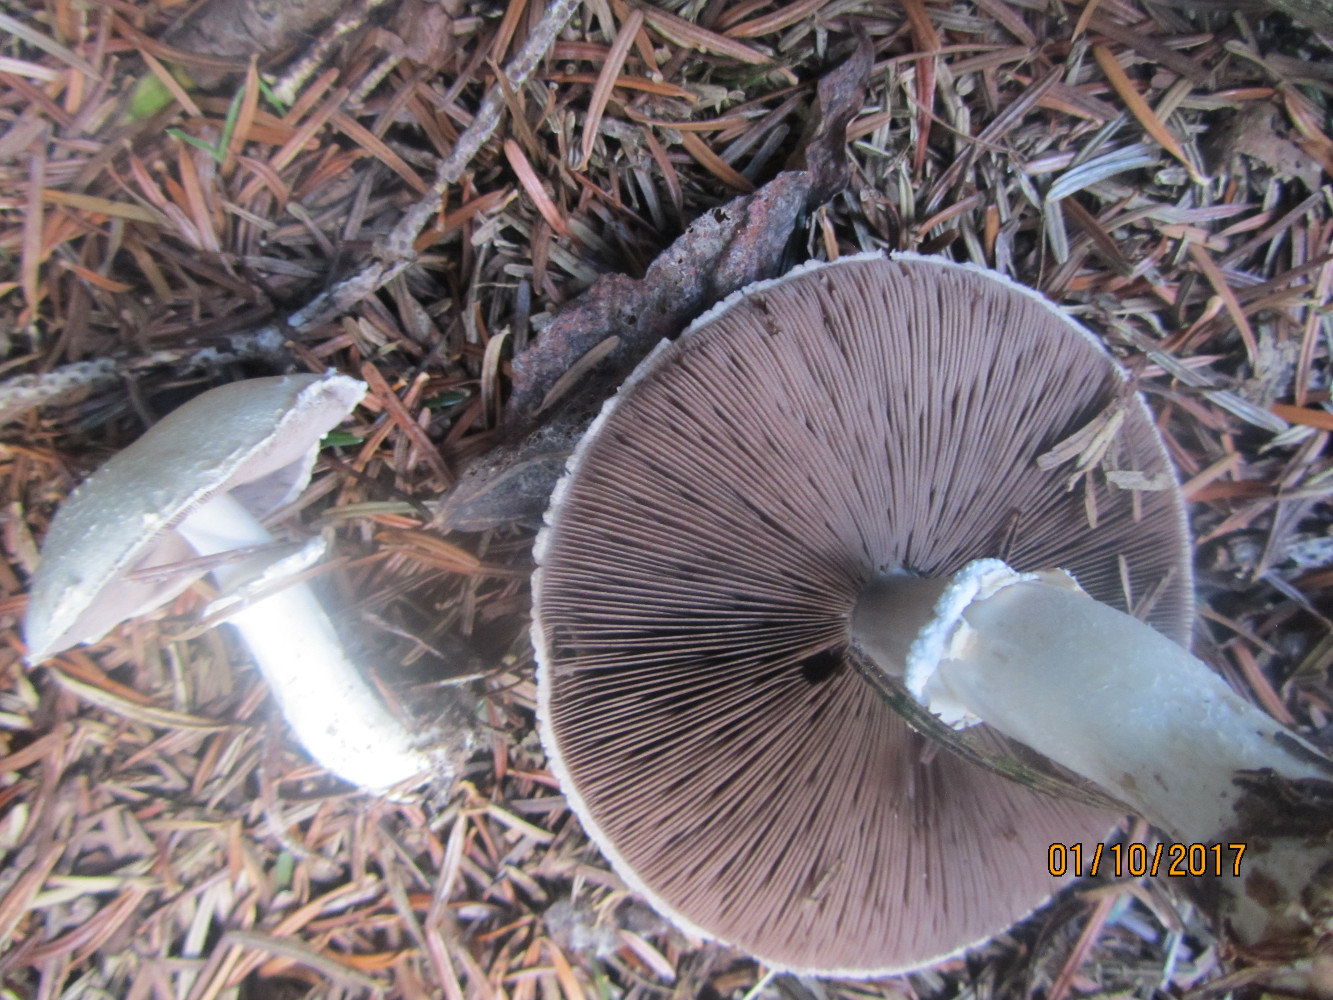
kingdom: Fungi
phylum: Basidiomycota
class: Agaricomycetes
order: Agaricales
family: Agaricaceae
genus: Agaricus
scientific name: Agaricus sylvicola
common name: skiveknoldet champignon
